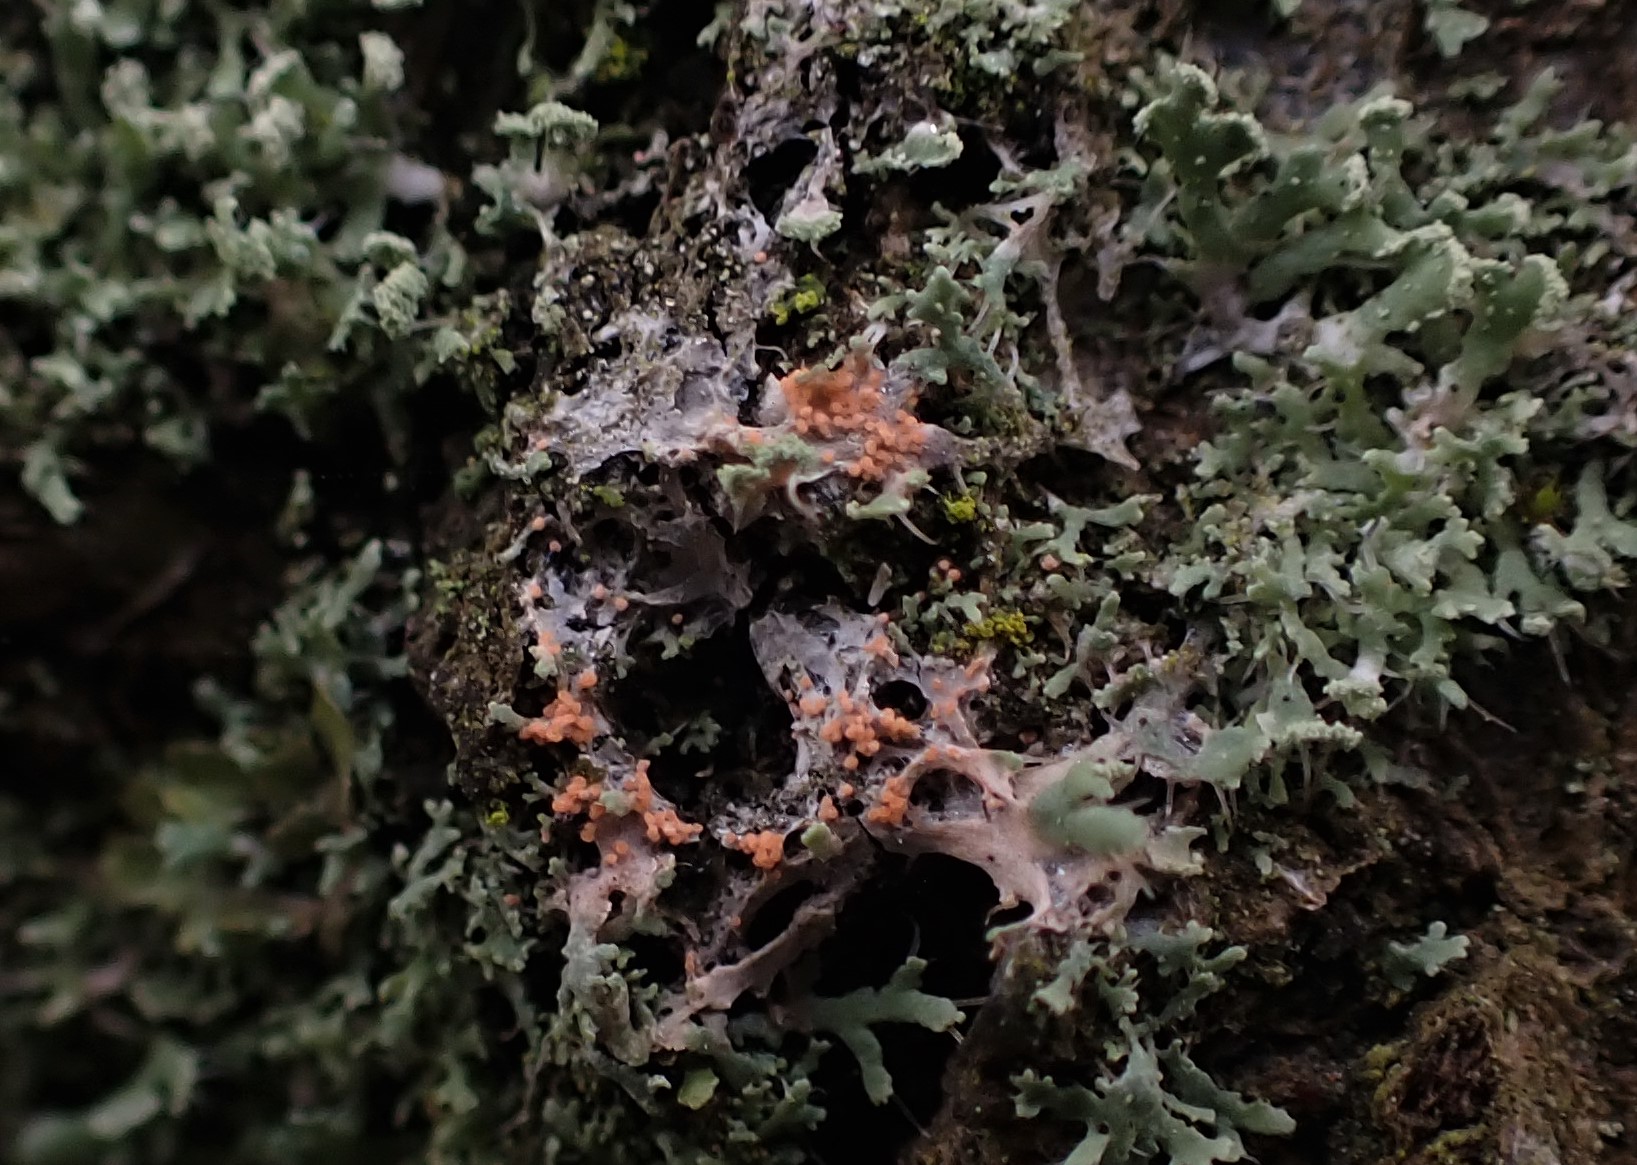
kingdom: Fungi
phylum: Basidiomycota
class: Agaricomycetes
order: Corticiales
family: Corticiaceae
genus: Erythricium
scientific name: Erythricium aurantiacum
